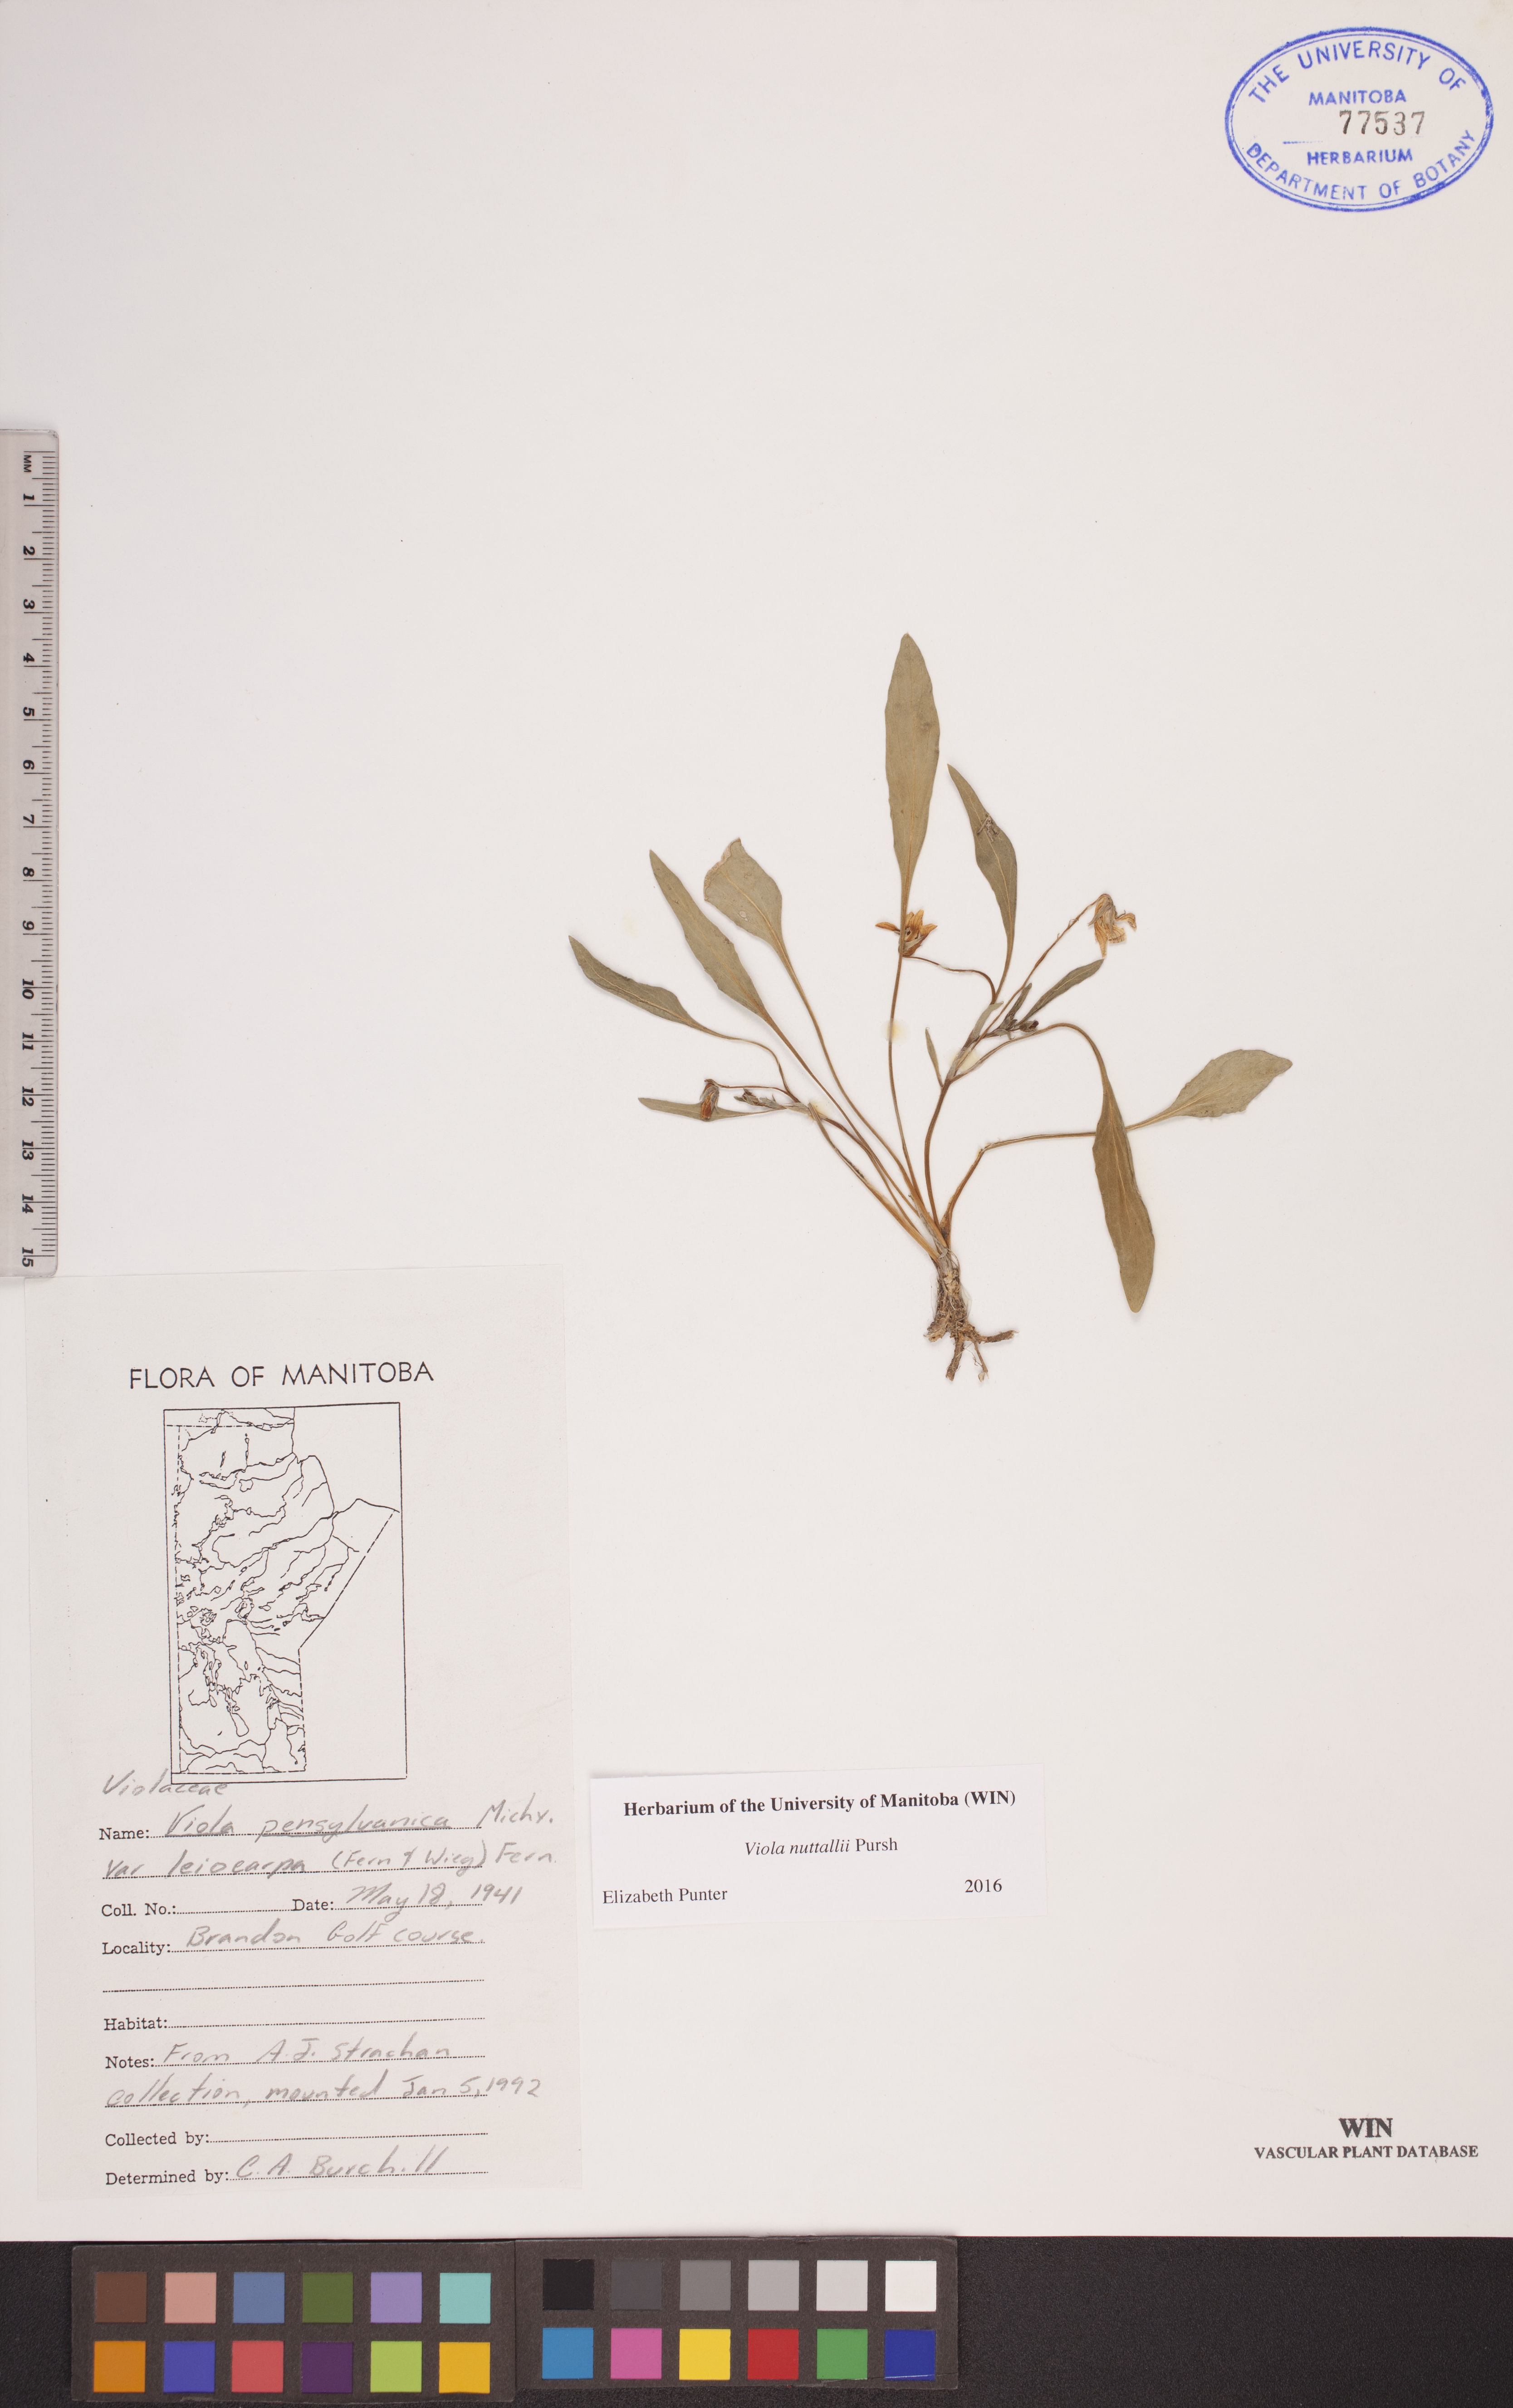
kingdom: Plantae
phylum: Tracheophyta
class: Magnoliopsida
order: Malpighiales
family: Violaceae
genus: Viola
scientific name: Viola nuttallii
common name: Yellow prairie violet
